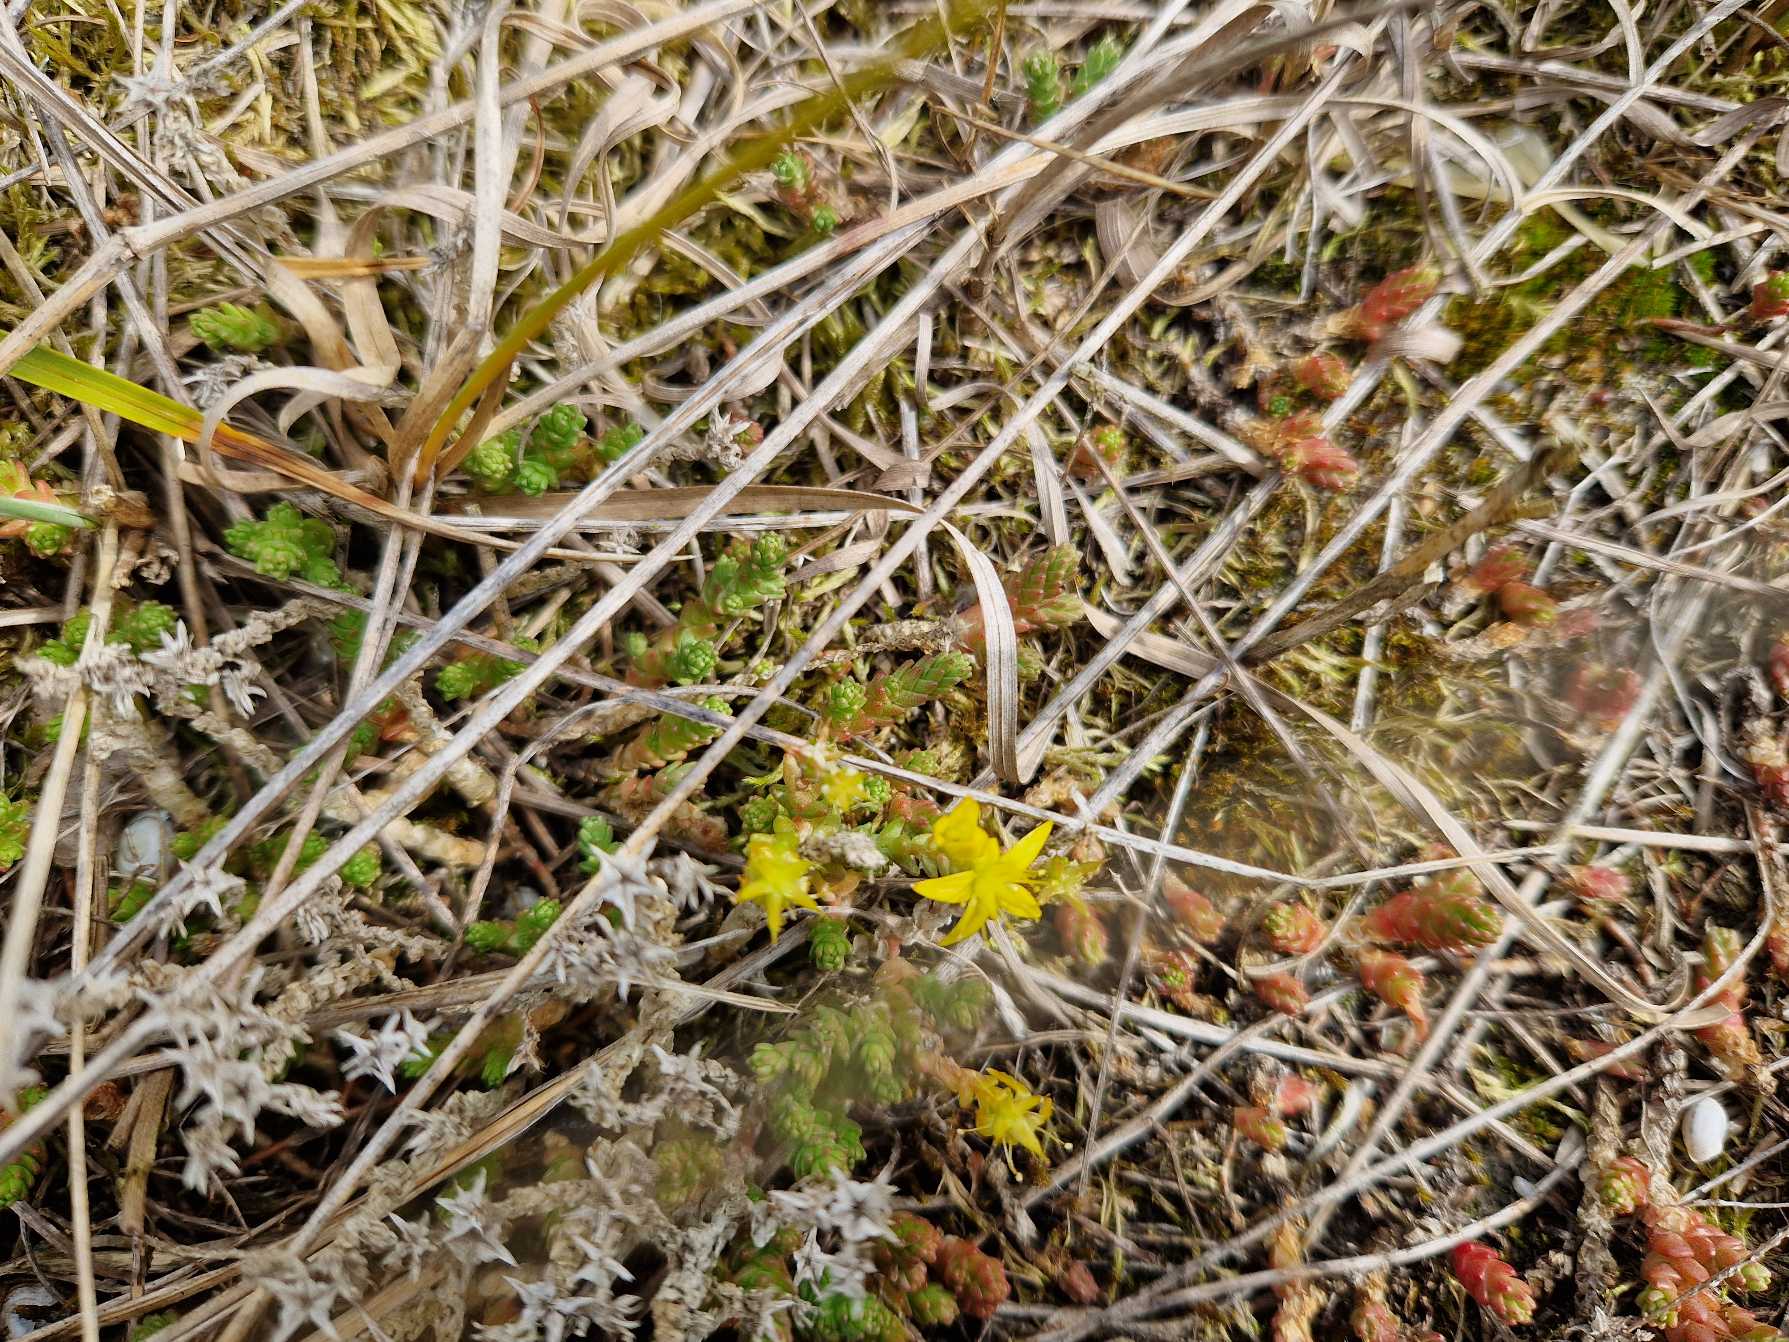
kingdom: Plantae
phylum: Tracheophyta
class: Magnoliopsida
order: Saxifragales
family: Crassulaceae
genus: Sedum
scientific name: Sedum acre
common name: Bidende stenurt
